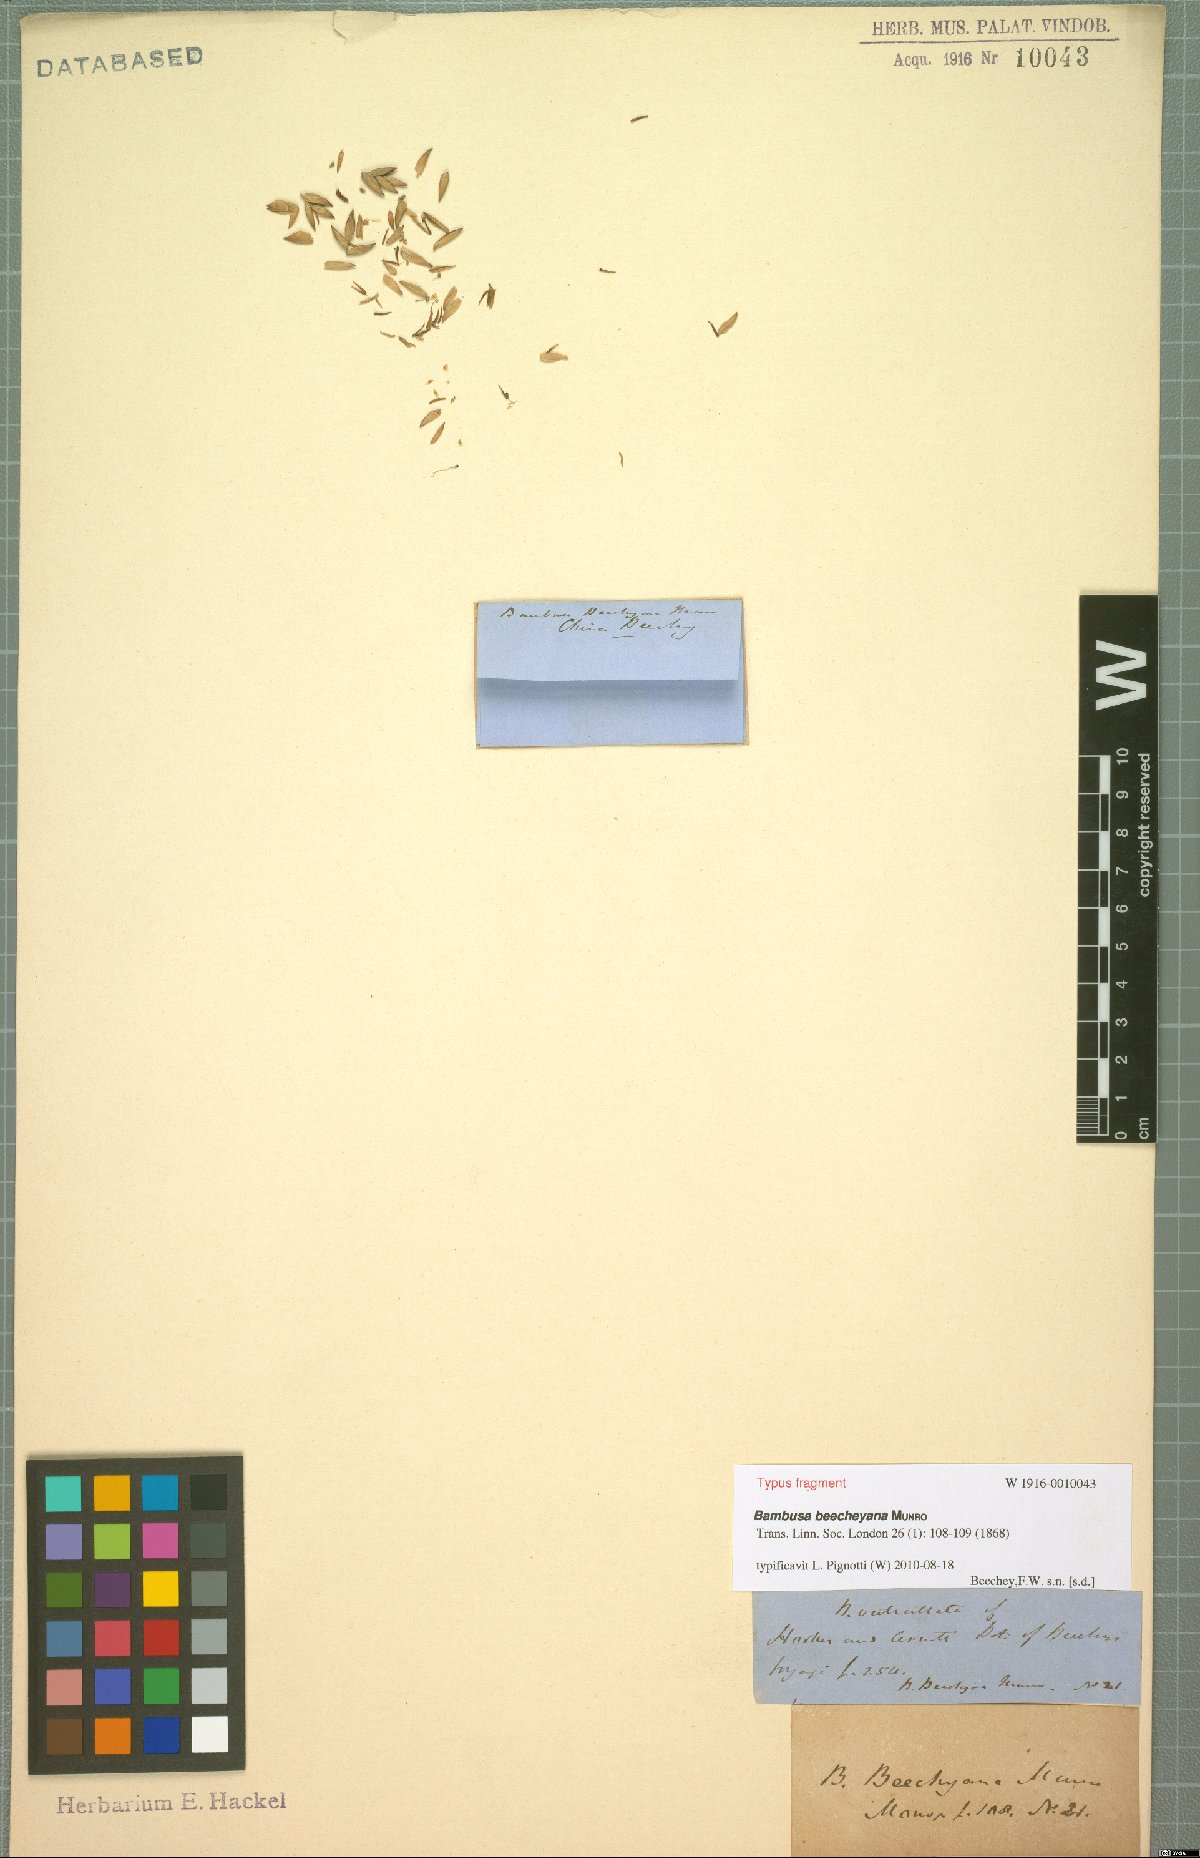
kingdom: Plantae
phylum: Tracheophyta
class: Liliopsida
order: Poales
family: Poaceae
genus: Bambusa
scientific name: Bambusa beecheyana
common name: Beechey's bamboo
